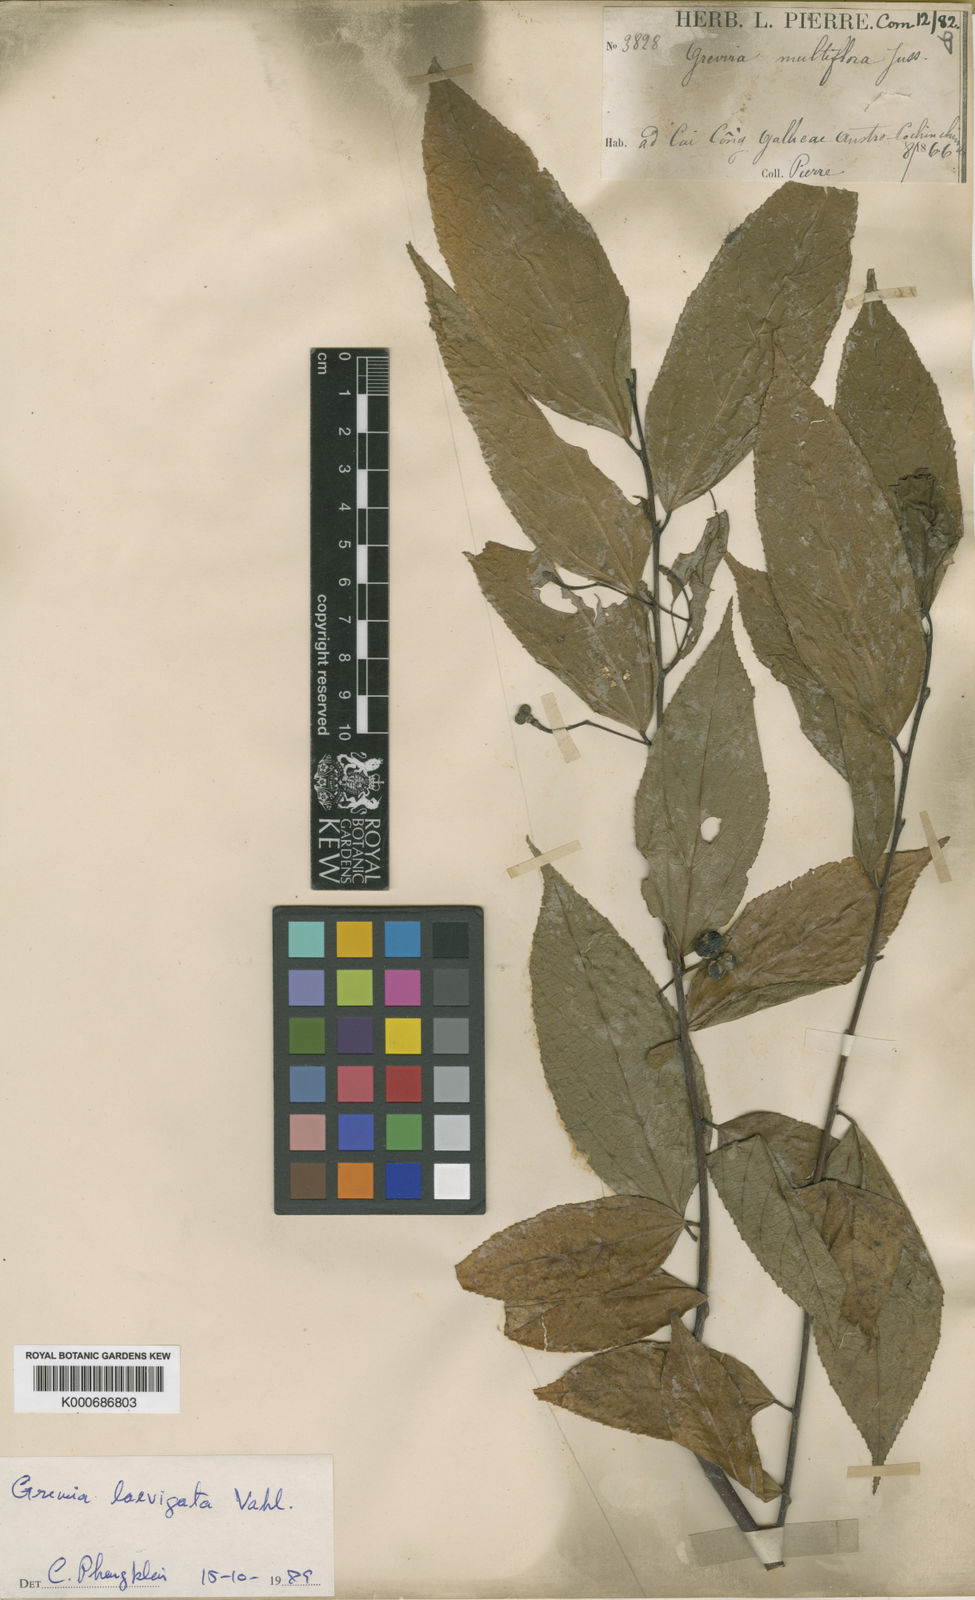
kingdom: Plantae
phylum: Tracheophyta
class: Magnoliopsida
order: Malvales
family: Malvaceae
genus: Grewia
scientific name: Grewia laevigata
